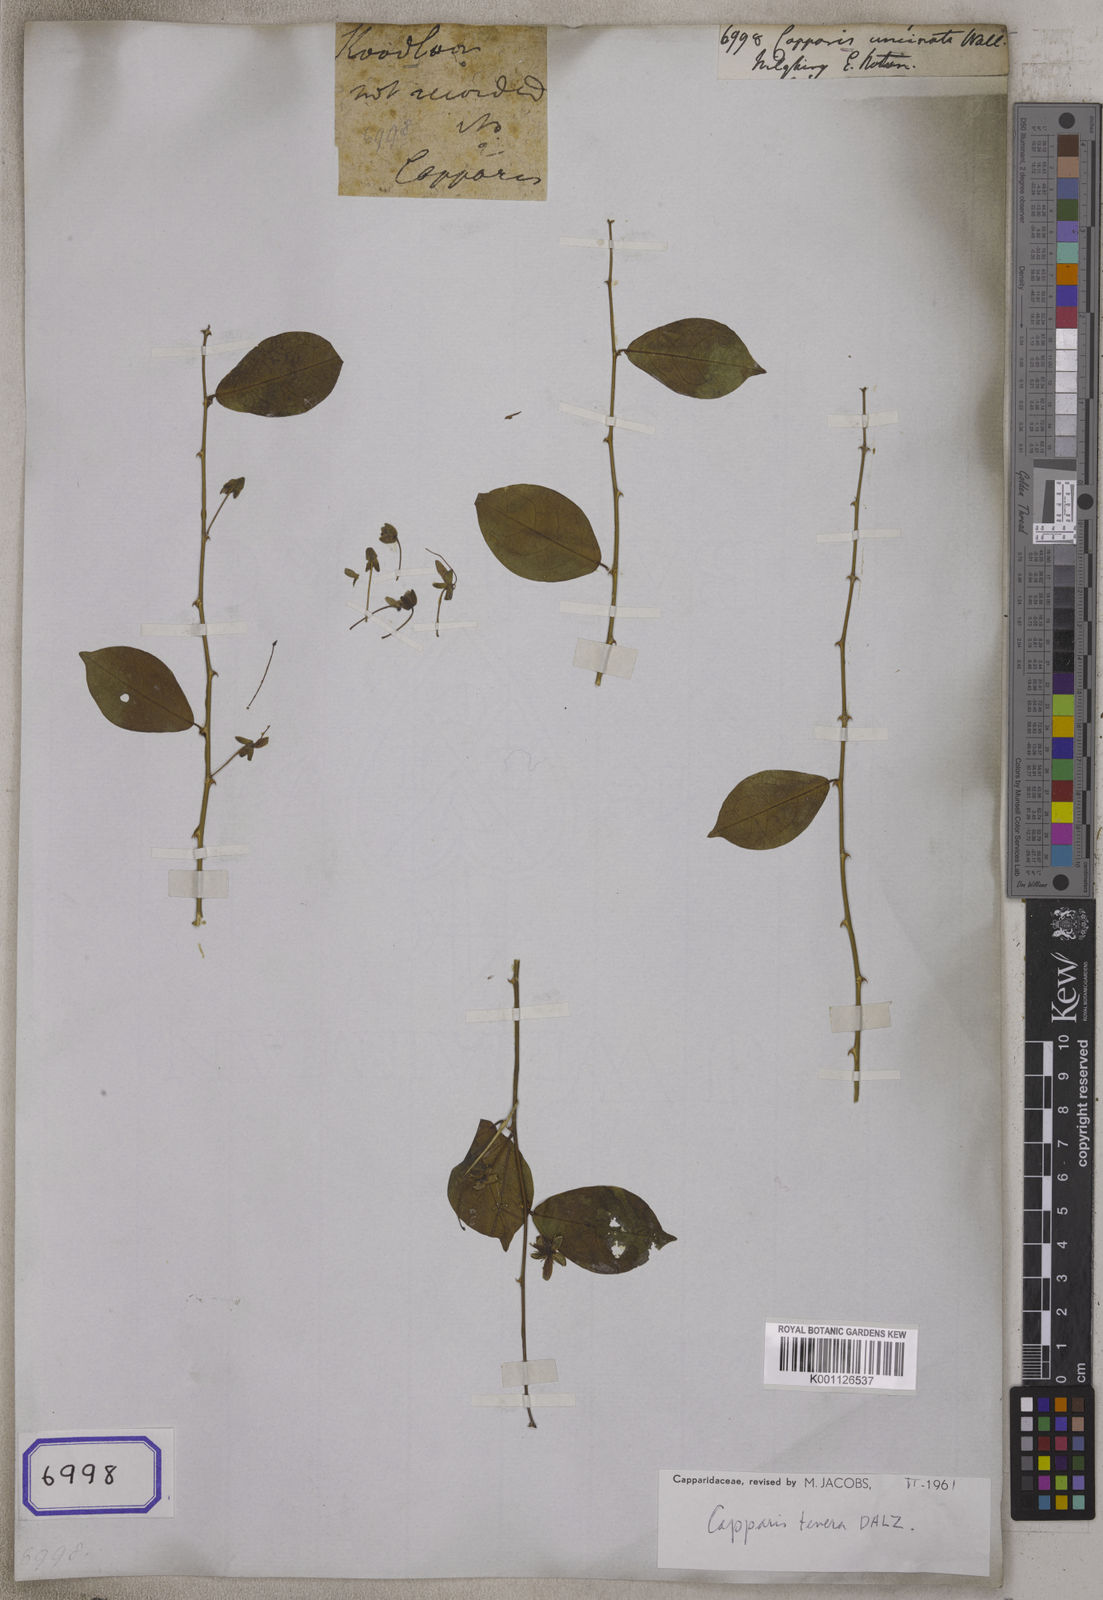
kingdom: Plantae
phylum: Tracheophyta
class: Magnoliopsida
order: Brassicales
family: Capparaceae
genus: Capparis
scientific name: Capparis
